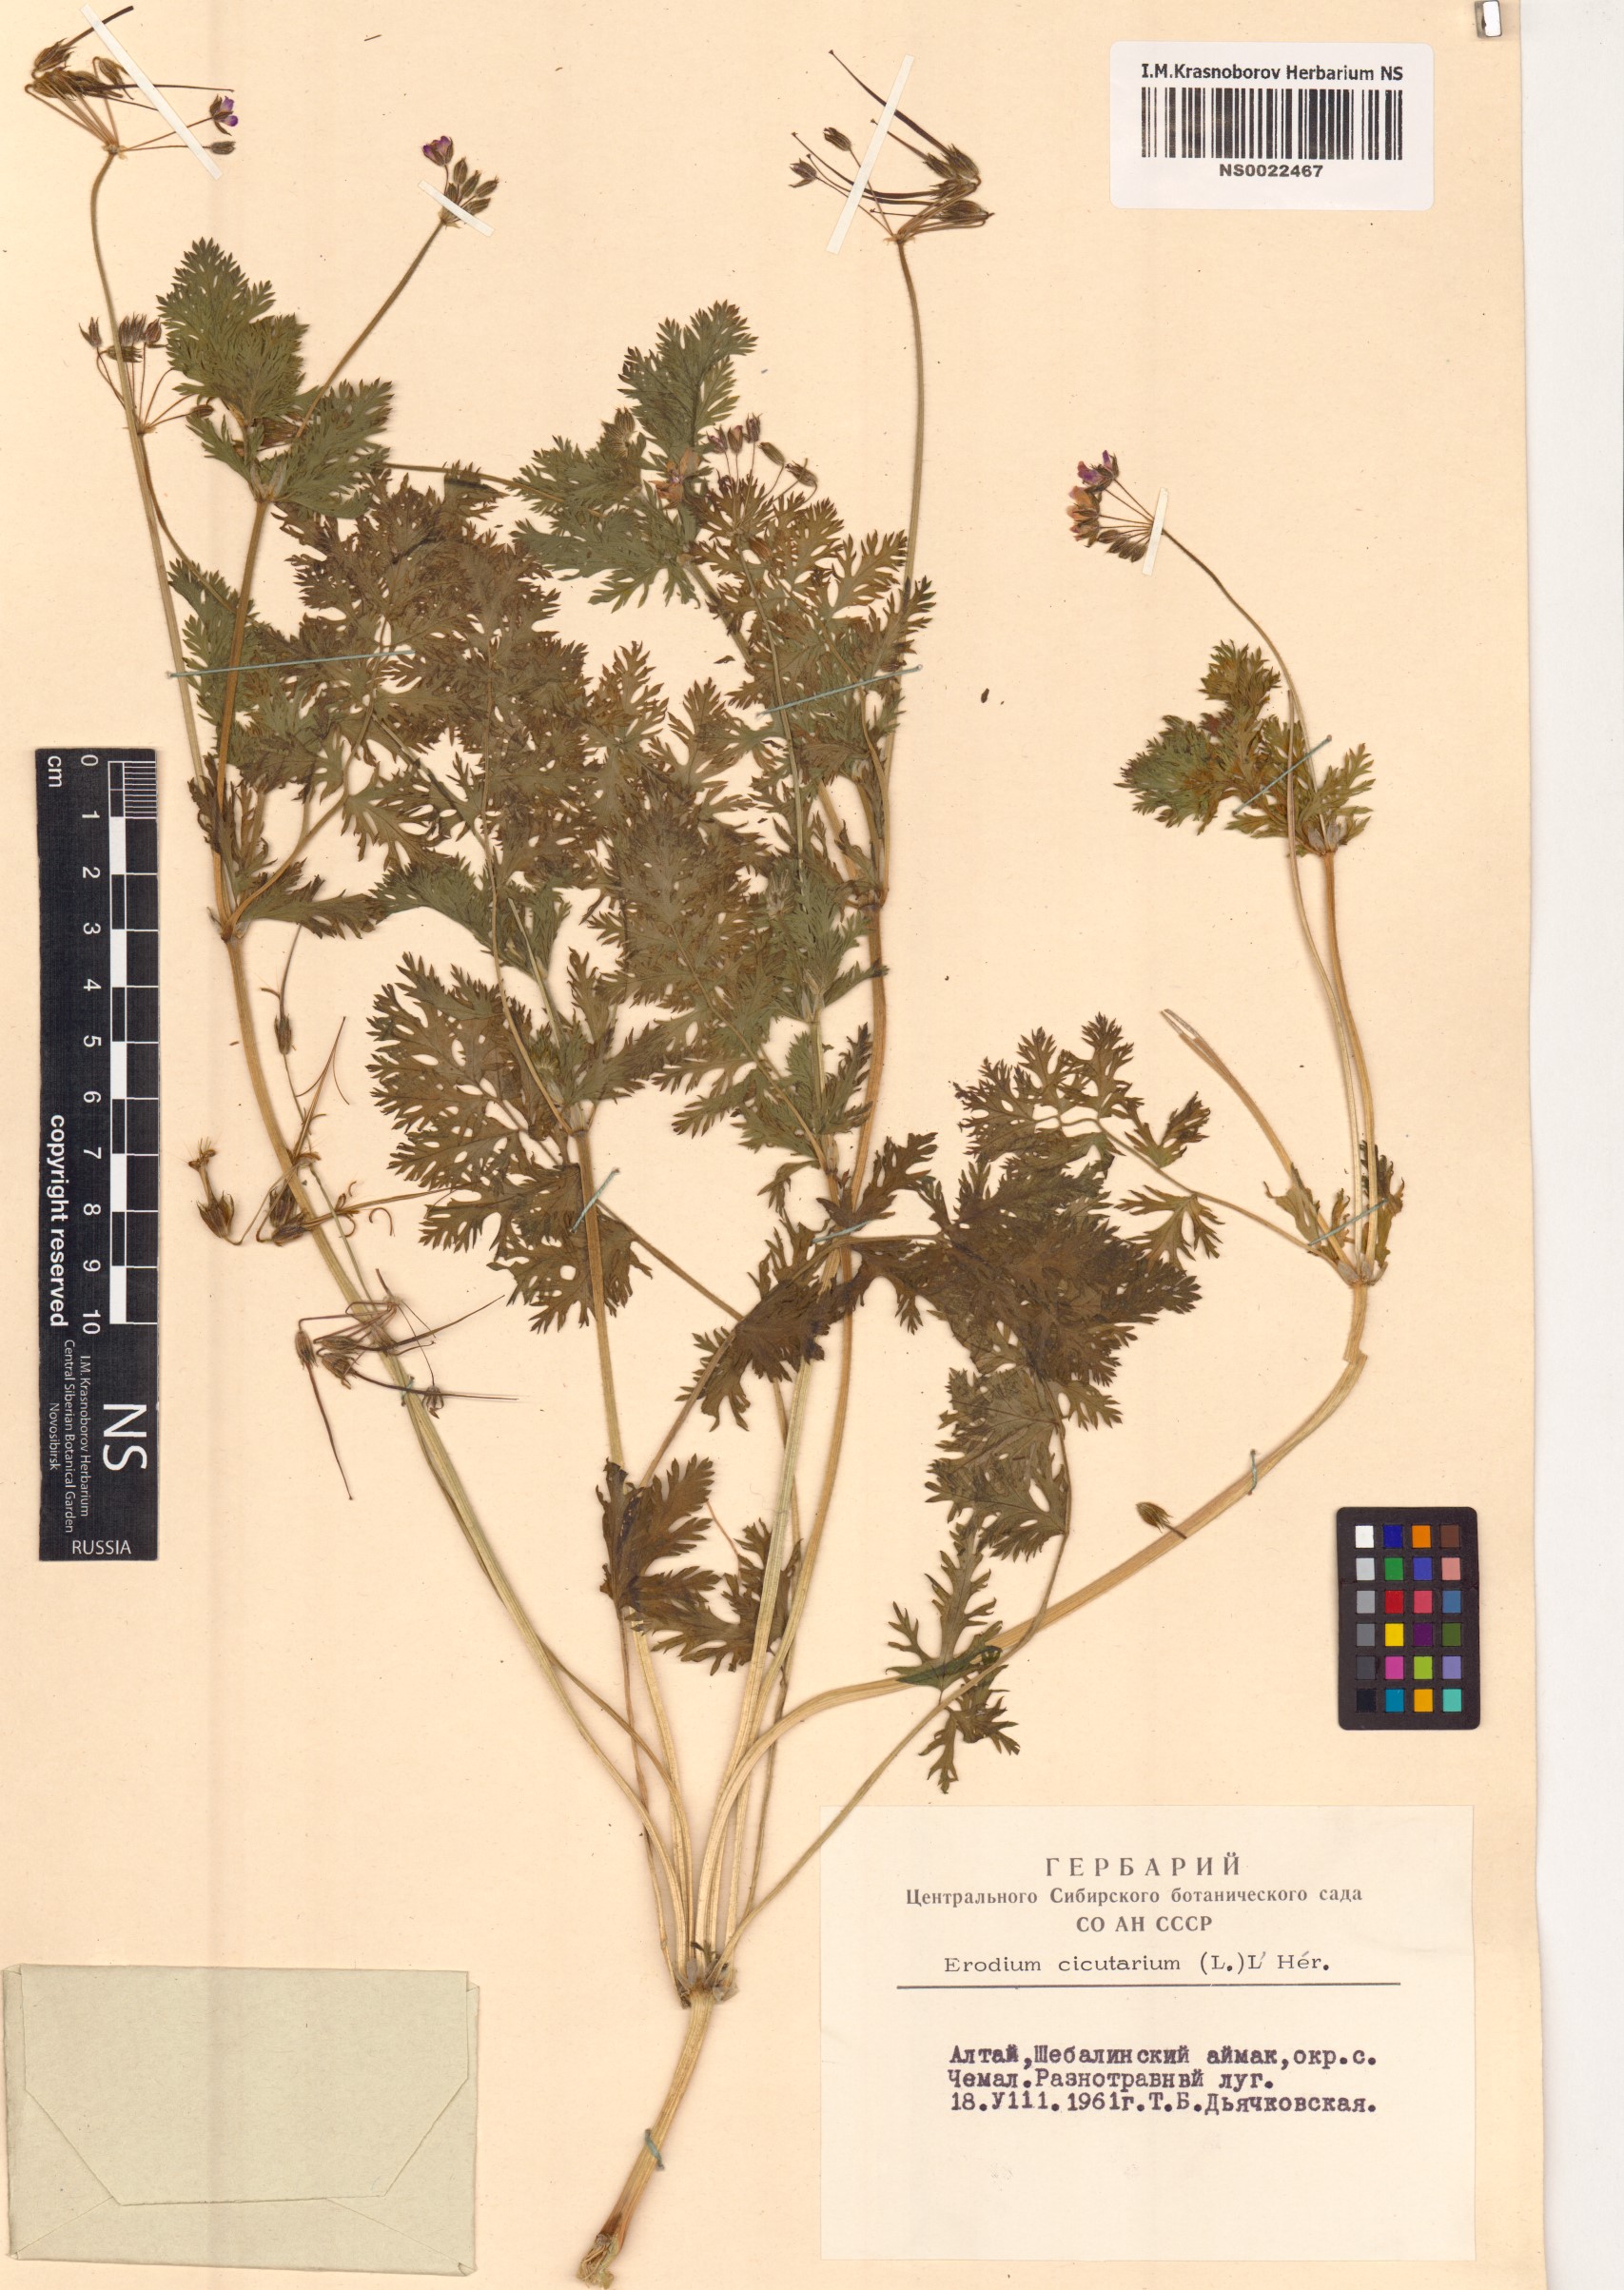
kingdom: Plantae
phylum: Tracheophyta
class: Magnoliopsida
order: Geraniales
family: Geraniaceae
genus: Erodium
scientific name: Erodium cicutarium
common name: Common stork's-bill
